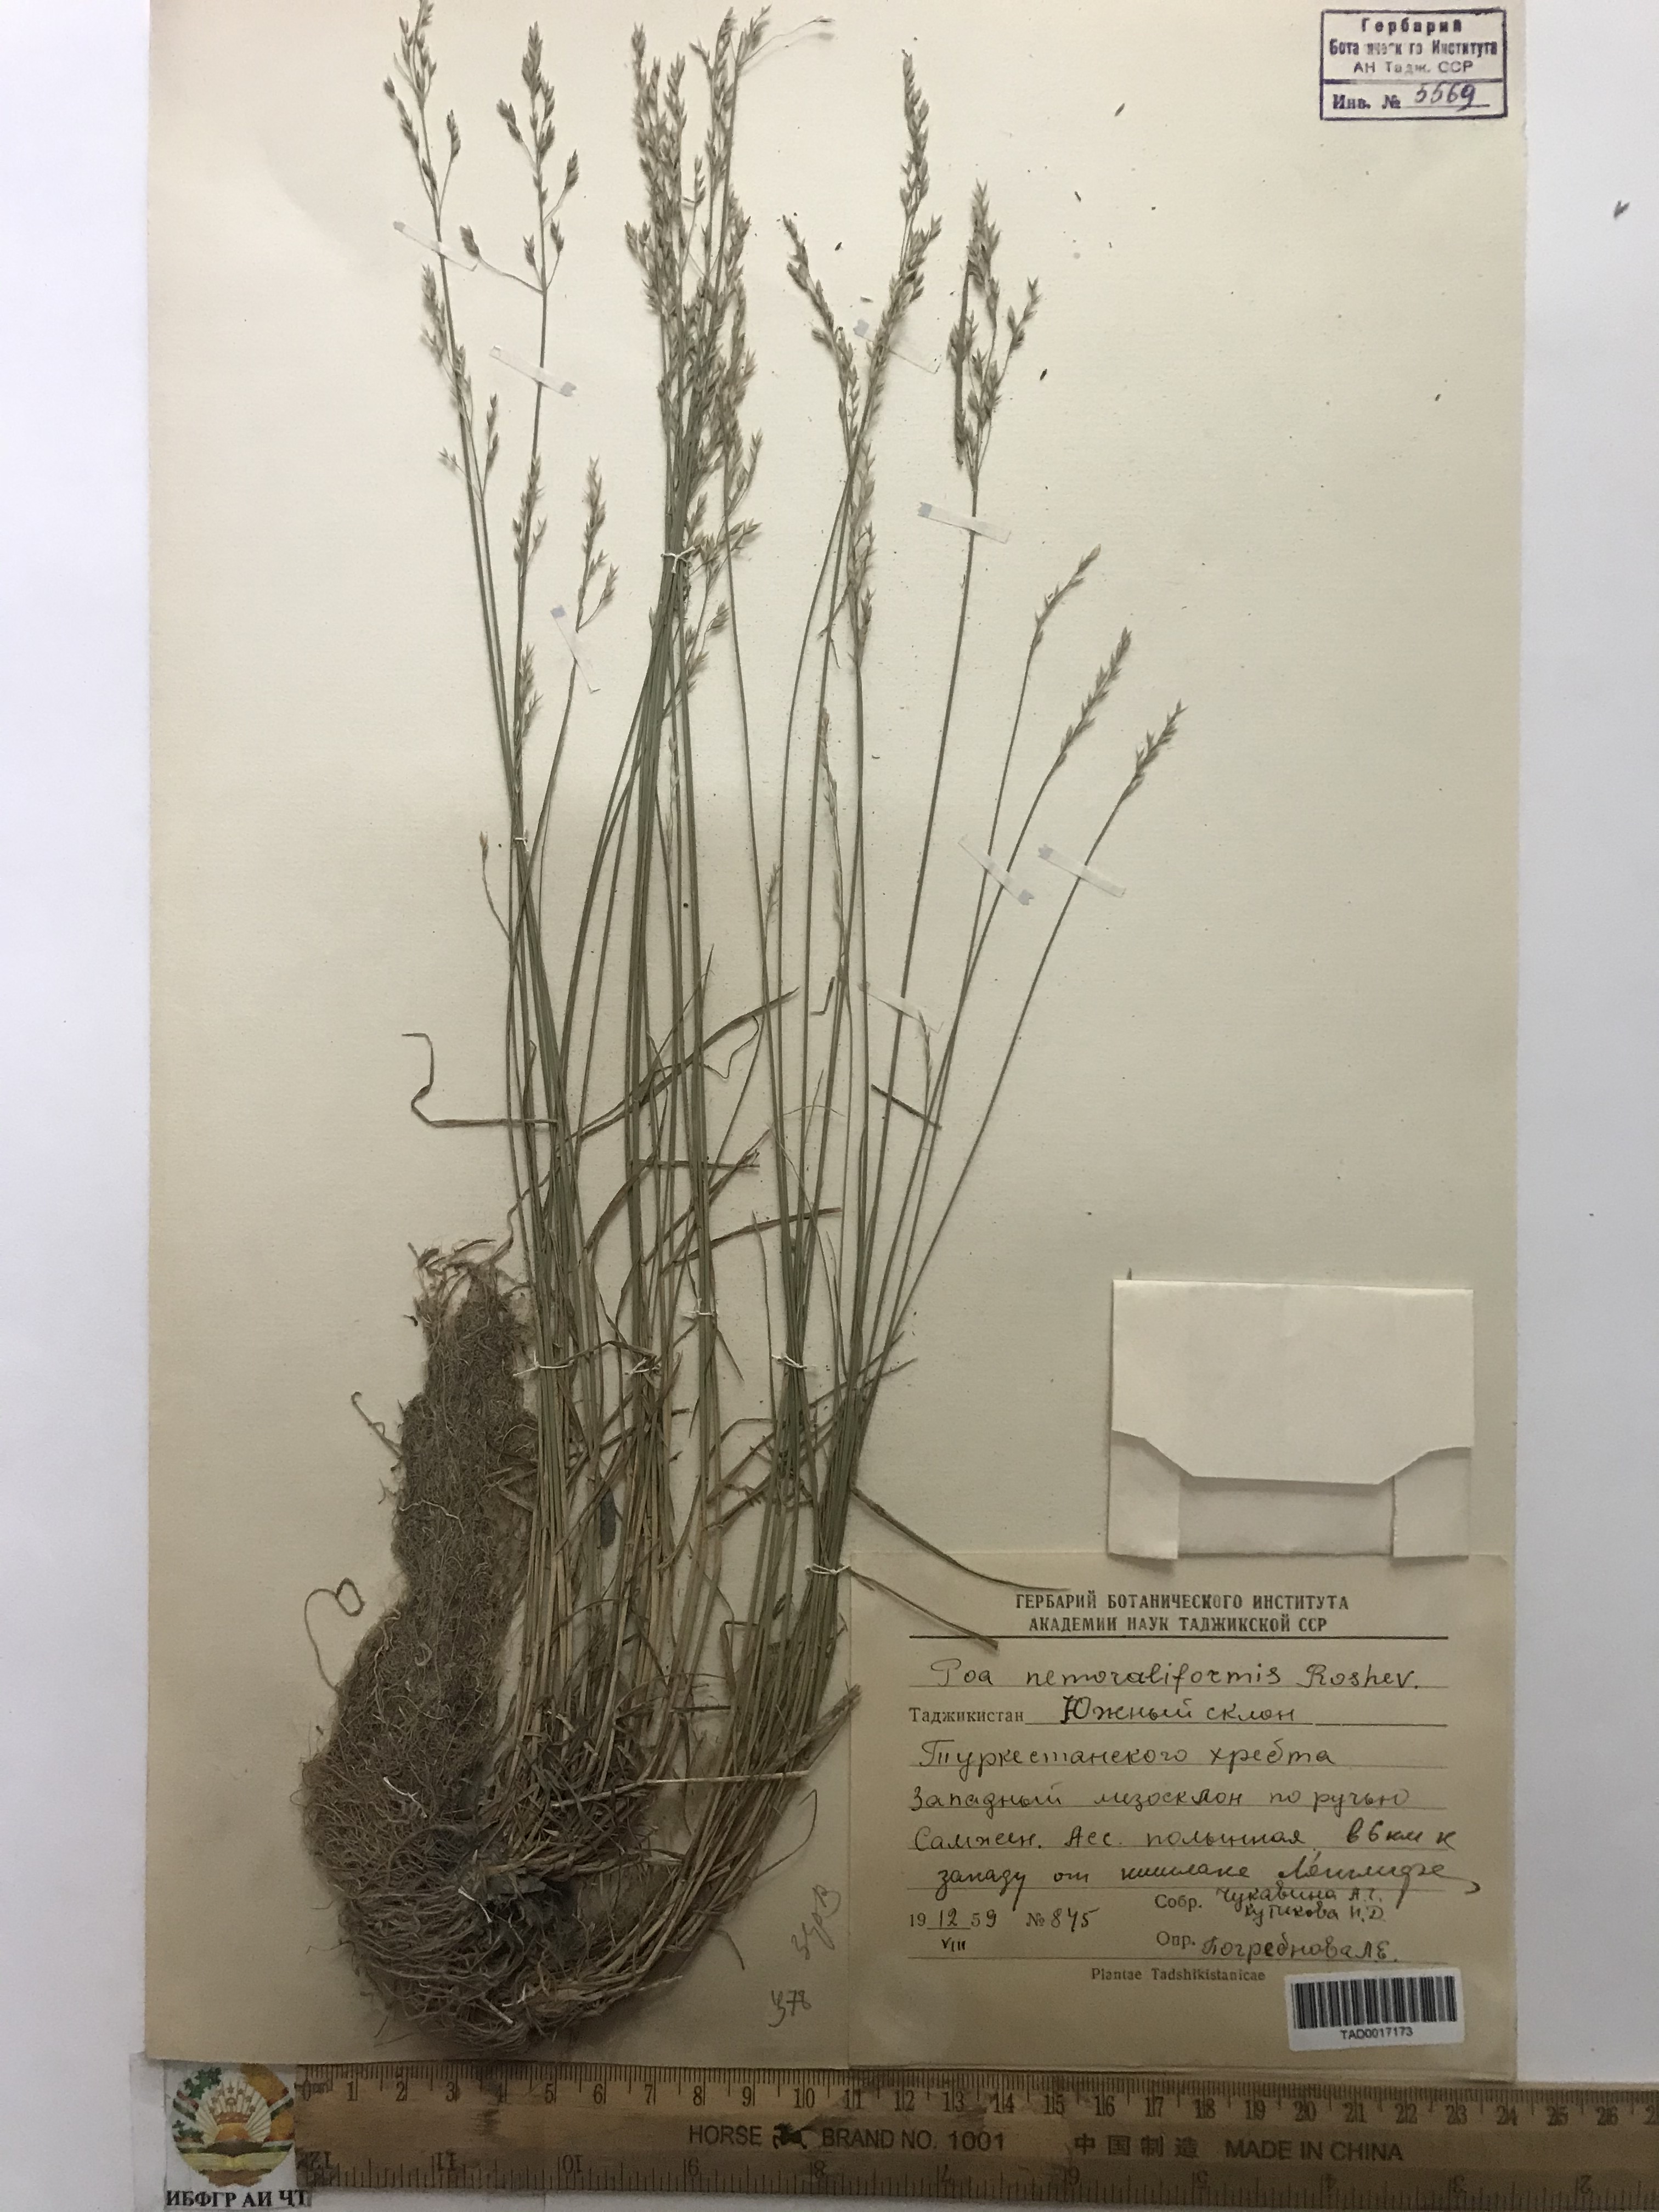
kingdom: Plantae
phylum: Tracheophyta
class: Liliopsida
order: Poales
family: Poaceae
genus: Poa
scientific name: Poa urssulensis
